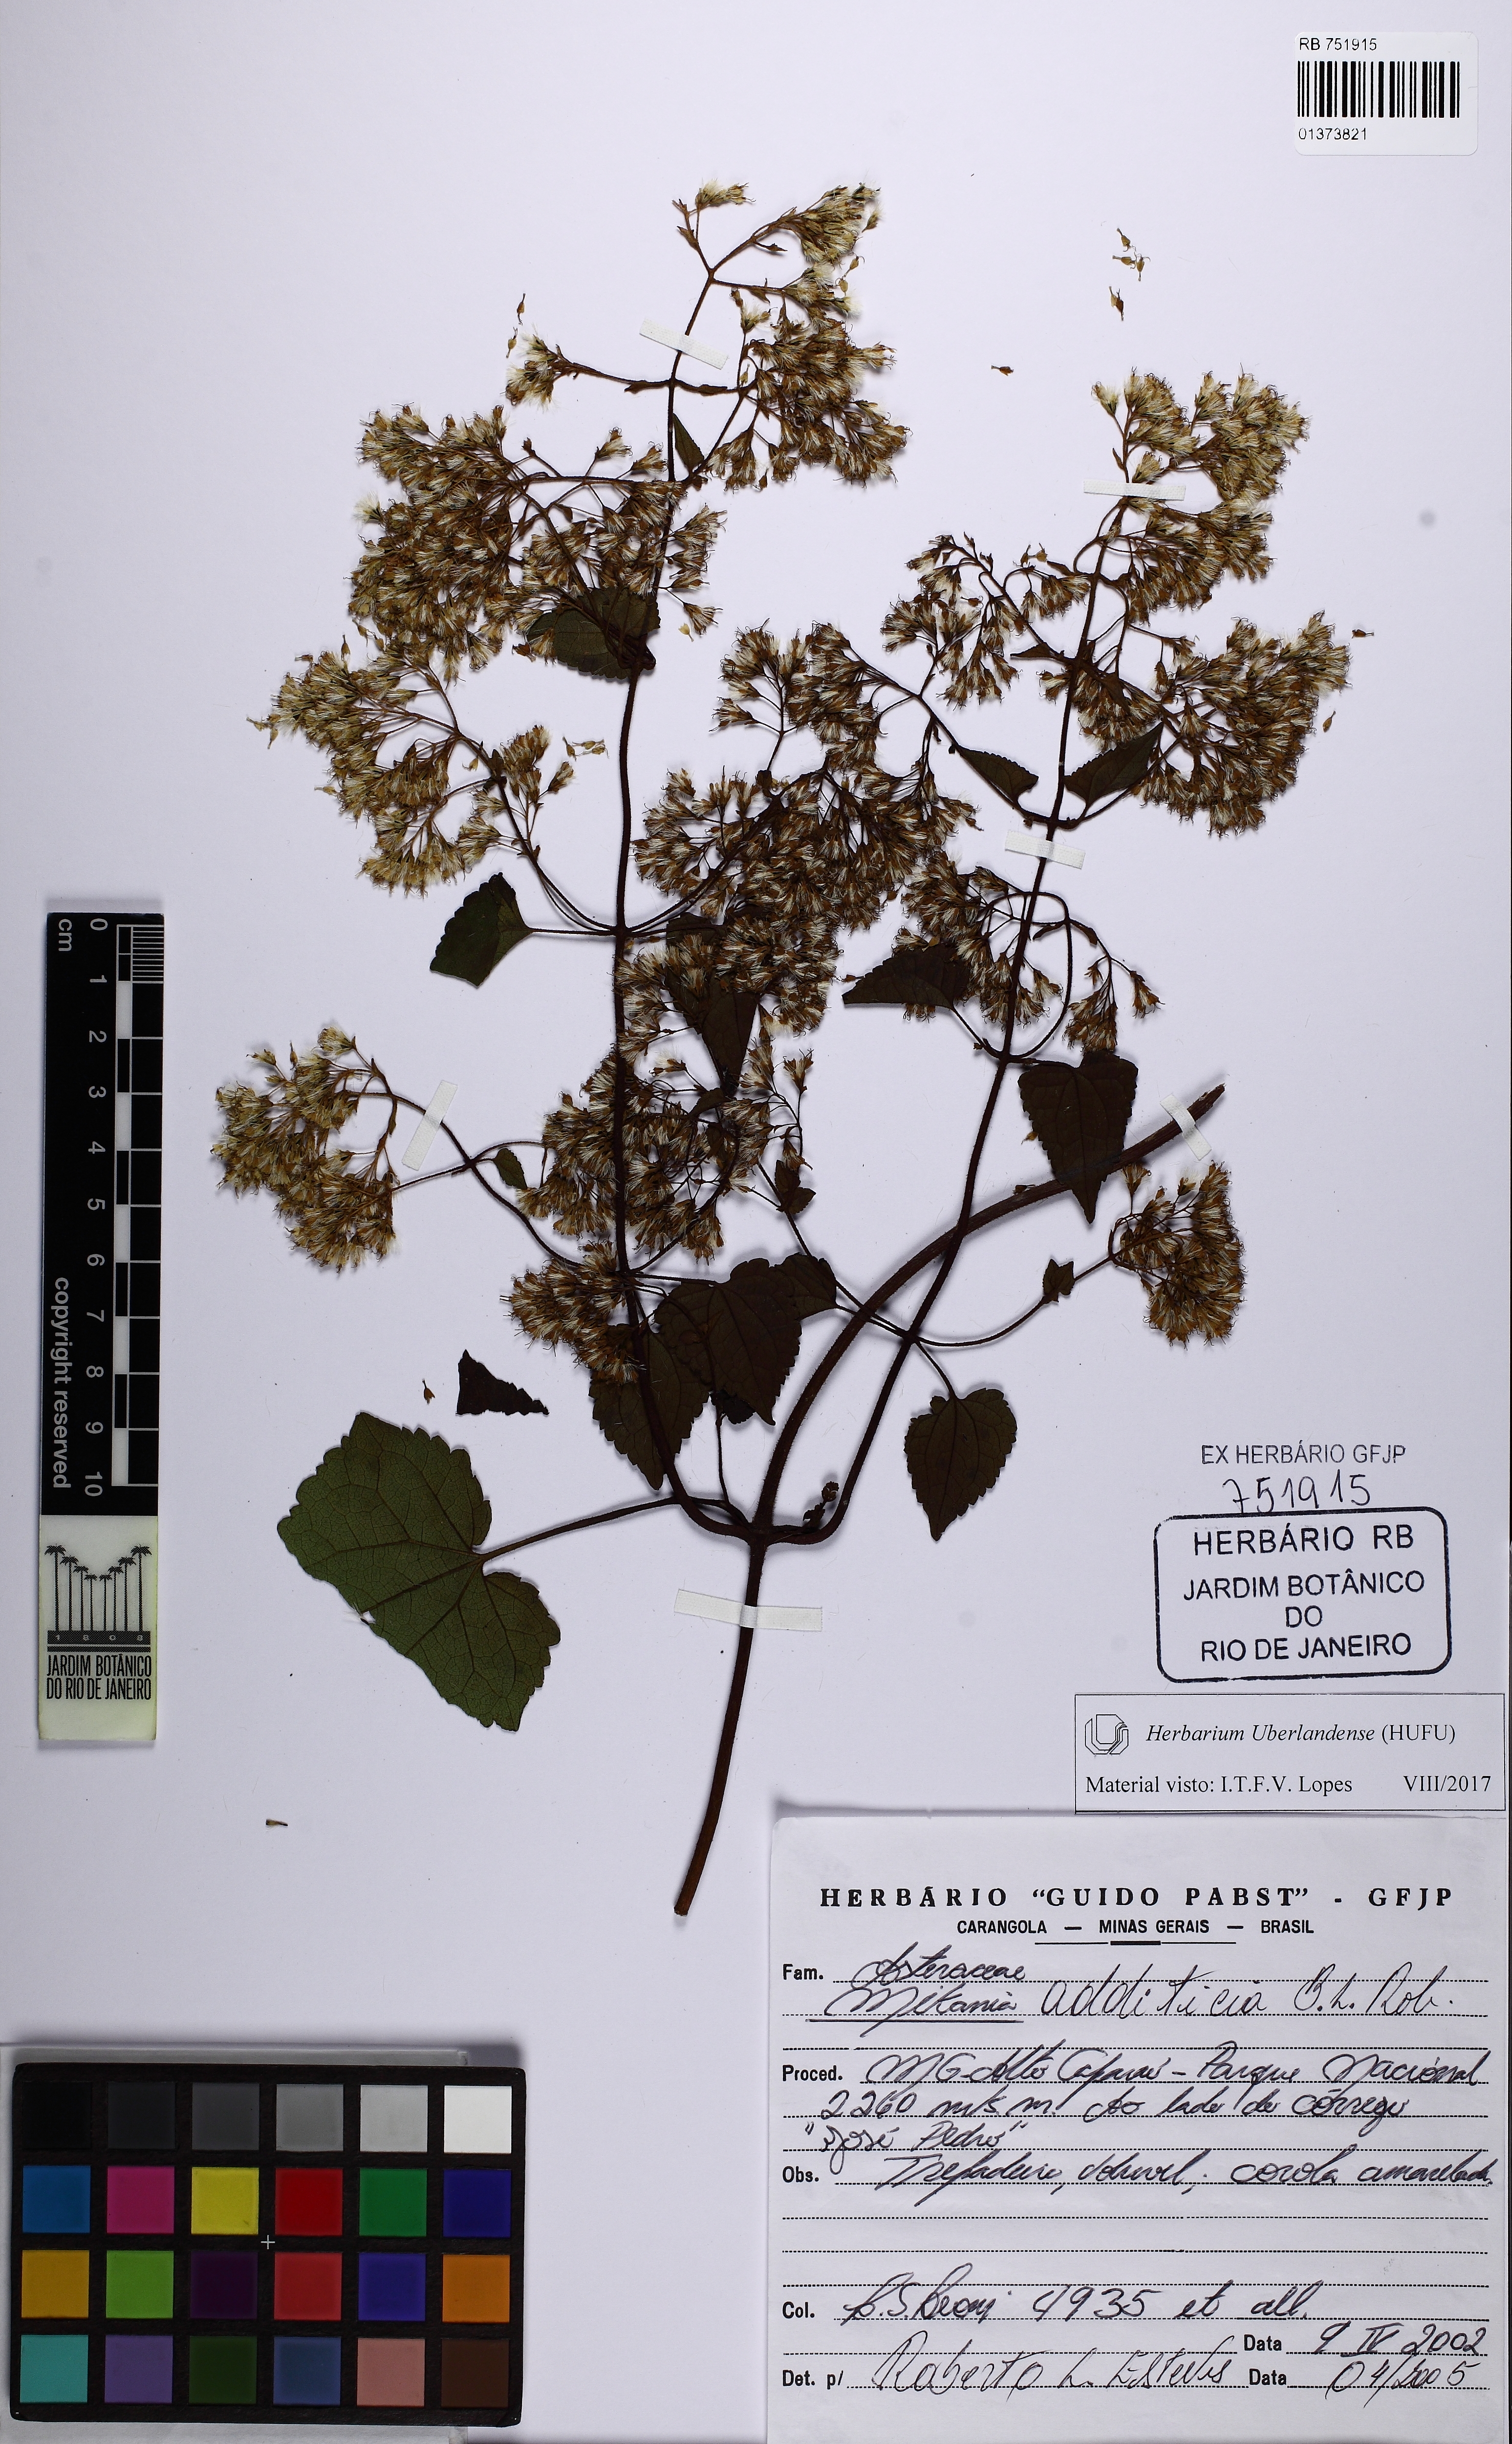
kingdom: Plantae
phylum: Tracheophyta
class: Magnoliopsida
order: Asterales
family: Asteraceae
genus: Mikania
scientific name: Mikania additicia
